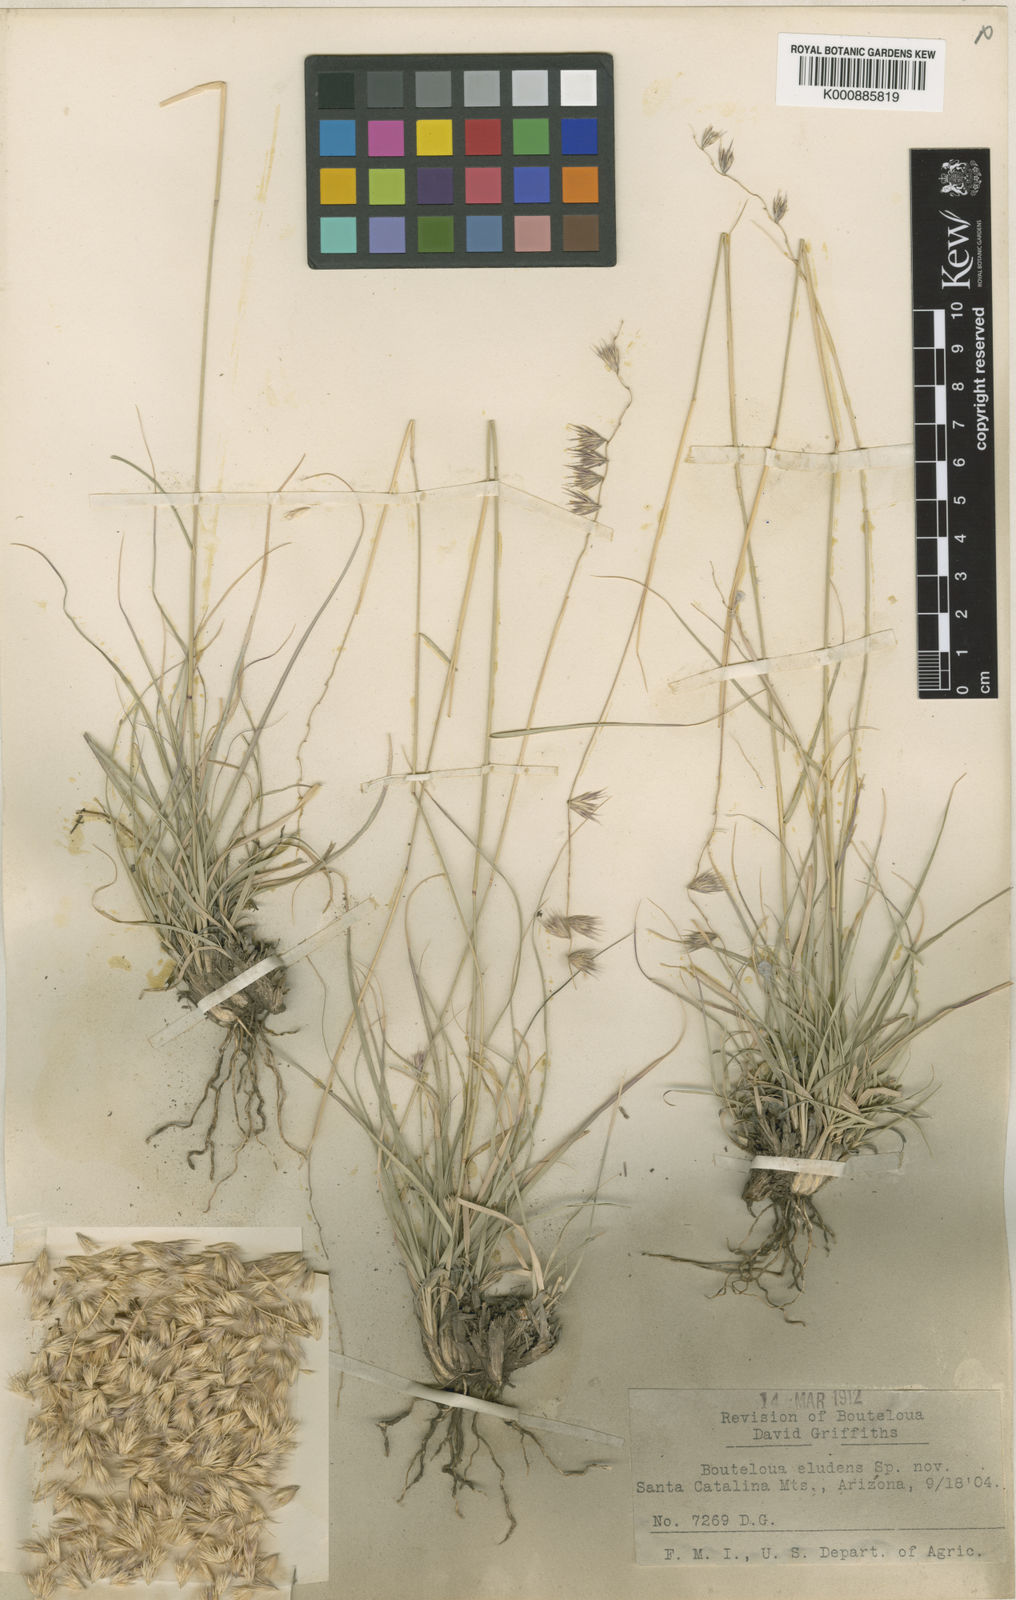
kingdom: Plantae
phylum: Tracheophyta
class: Liliopsida
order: Poales
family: Poaceae
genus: Bouteloua
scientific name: Bouteloua eludens
